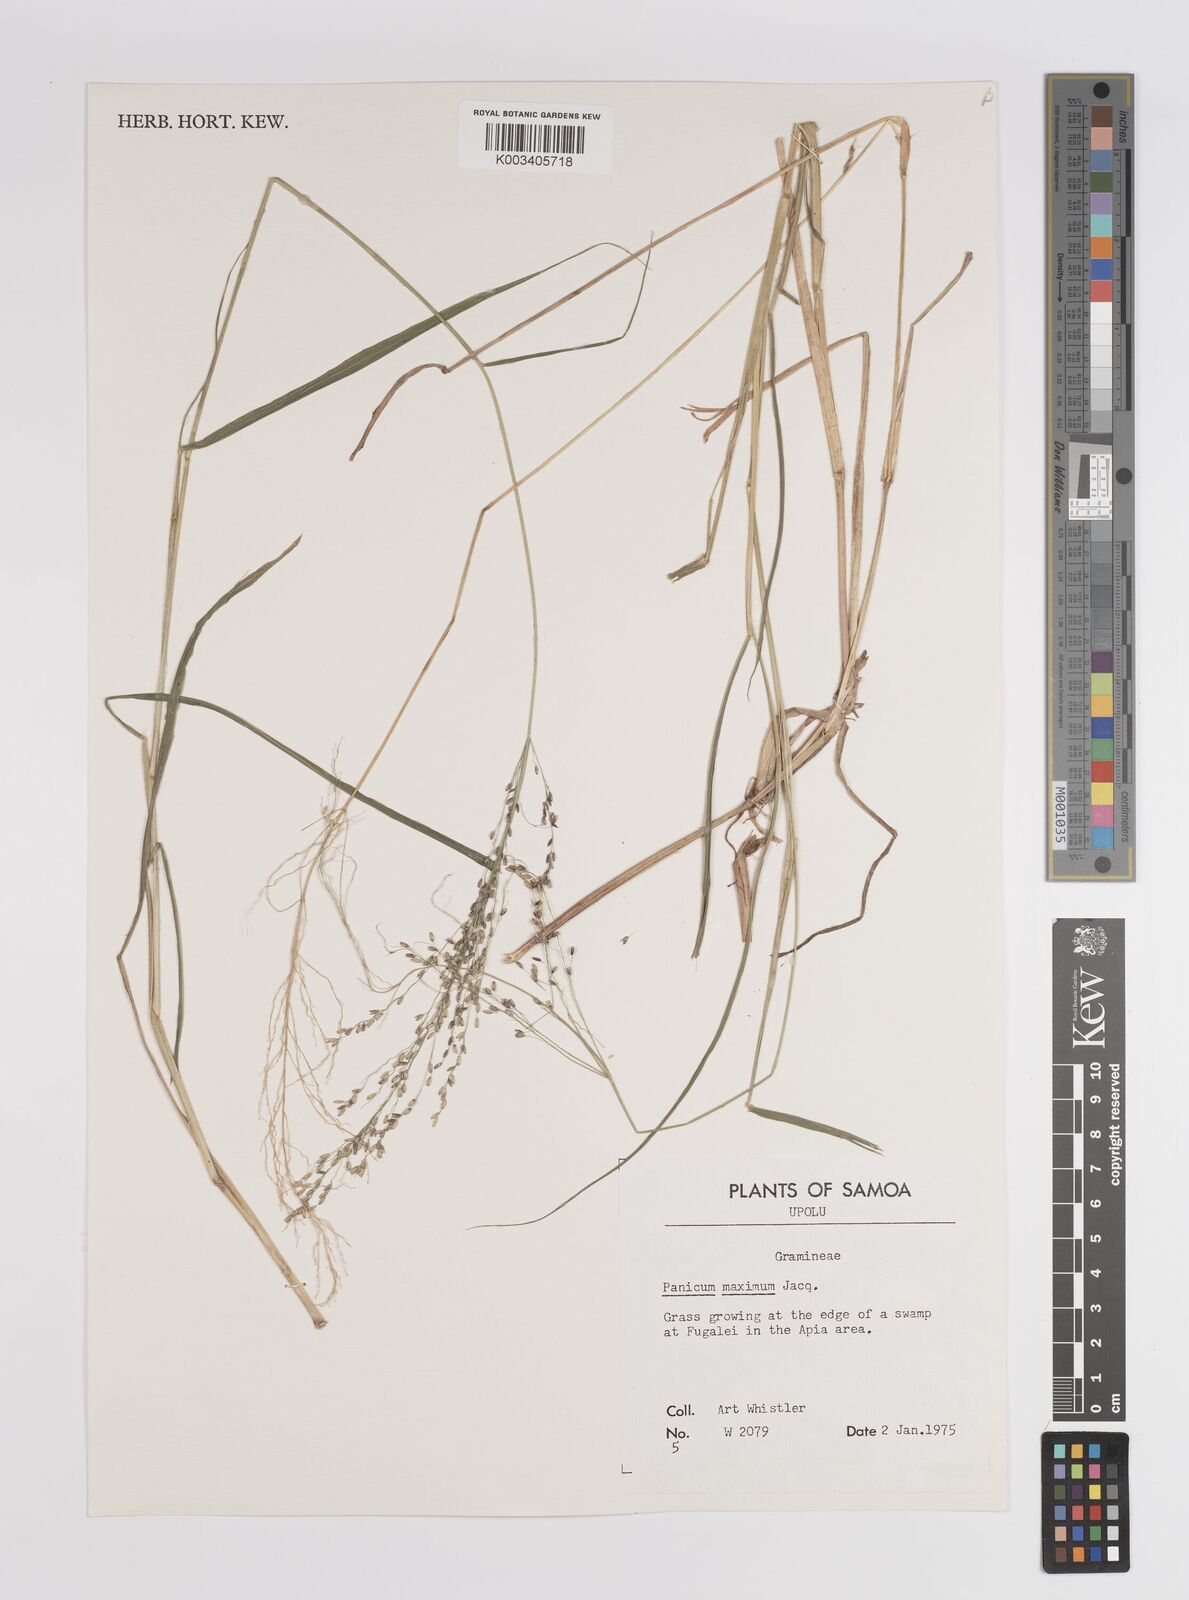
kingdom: Plantae
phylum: Tracheophyta
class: Liliopsida
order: Poales
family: Poaceae
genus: Megathyrsus
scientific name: Megathyrsus maximus
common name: Guineagrass
